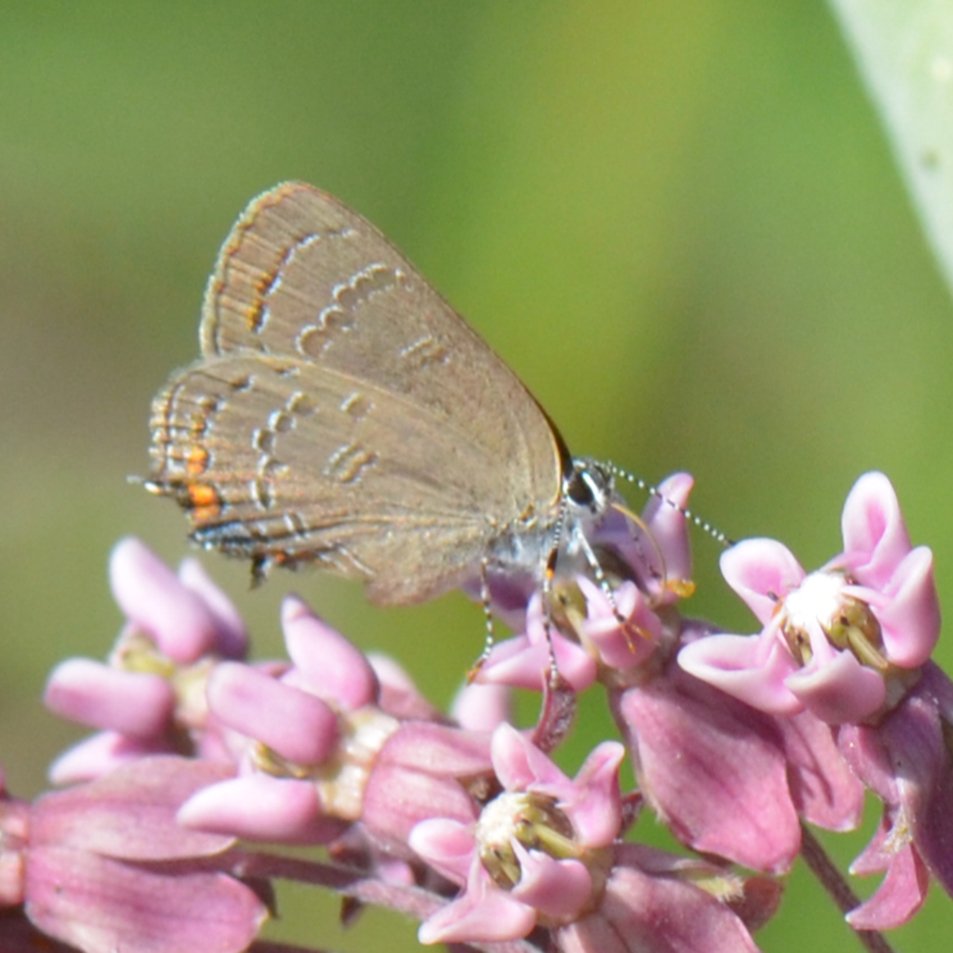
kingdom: Animalia
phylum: Arthropoda
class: Insecta
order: Lepidoptera
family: Lycaenidae
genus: Satyrium
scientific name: Satyrium calanus
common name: Banded Hairstreak
